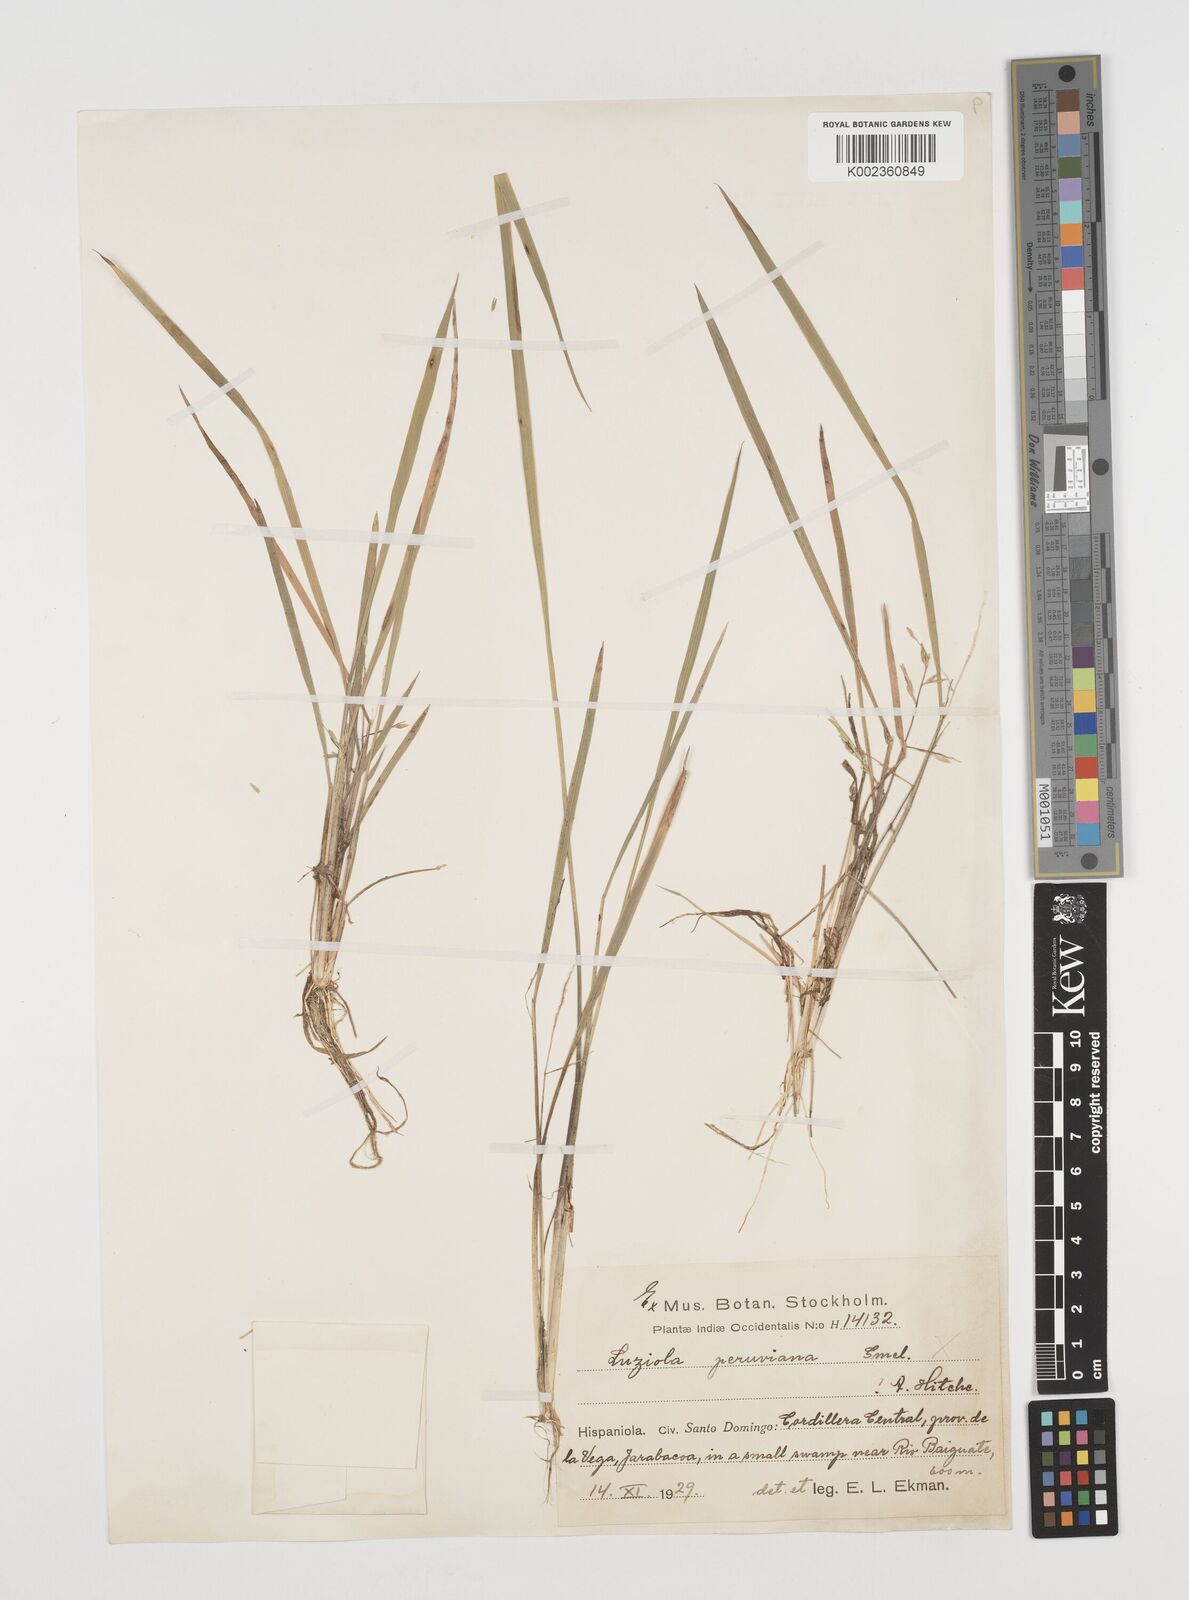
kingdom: Plantae
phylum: Tracheophyta
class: Liliopsida
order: Poales
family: Poaceae
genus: Luziola
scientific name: Luziola bahiensis
